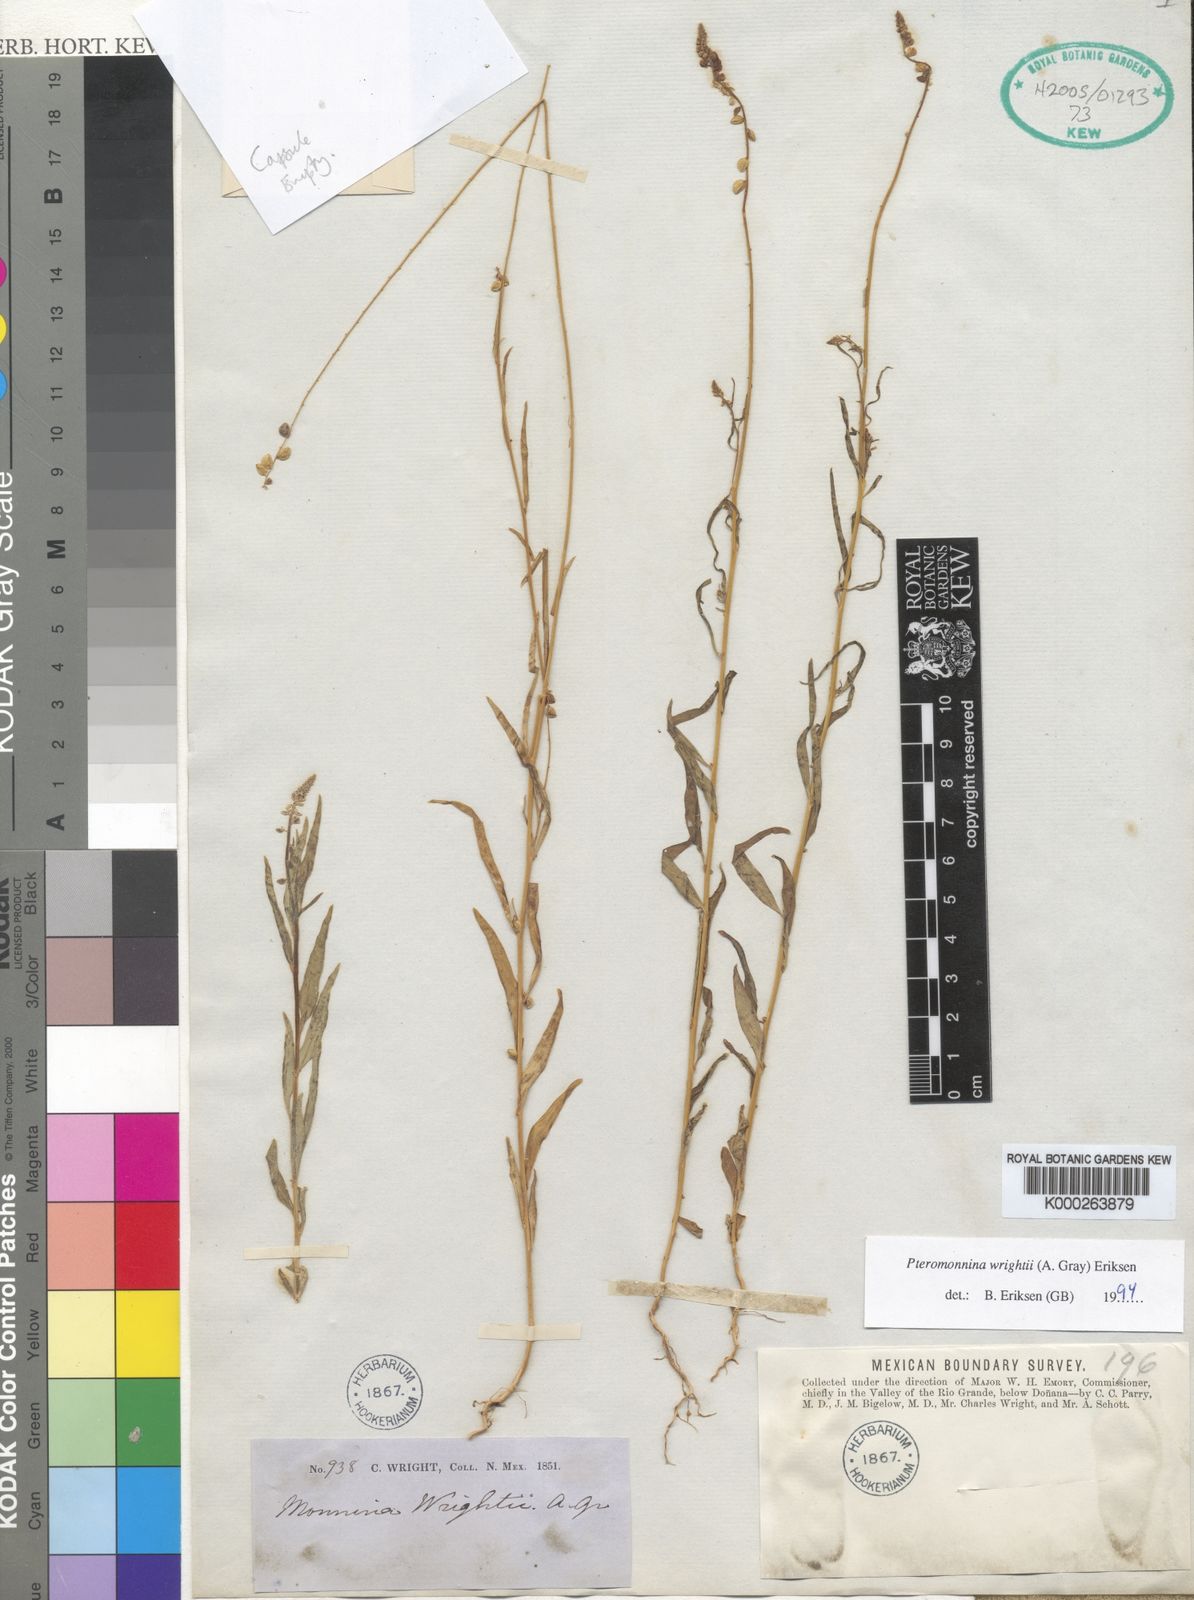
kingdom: Plantae
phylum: Tracheophyta
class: Magnoliopsida
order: Fabales
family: Polygalaceae
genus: Monnina
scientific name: Monnina wrightii
